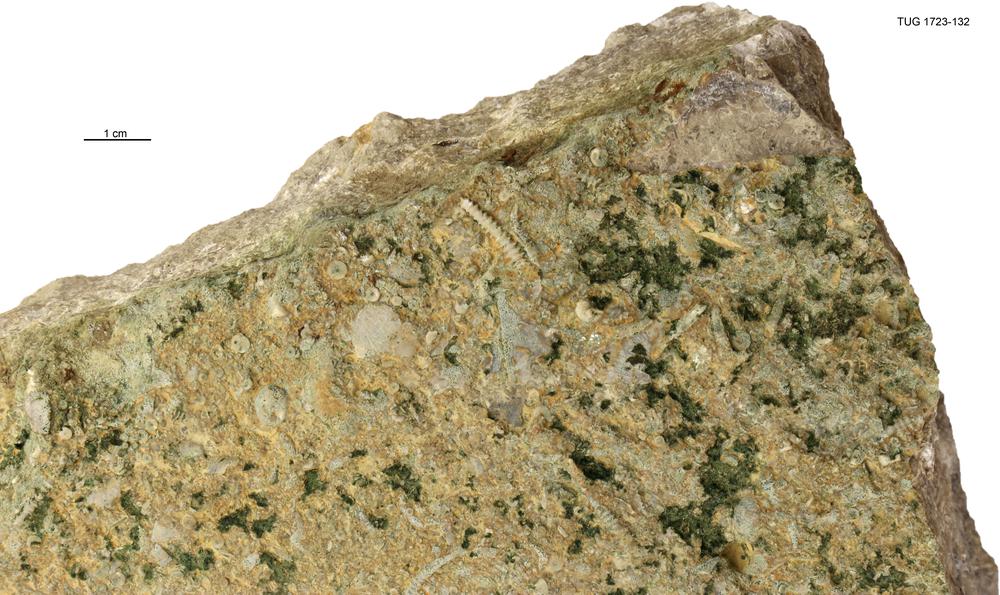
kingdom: Animalia
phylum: Mollusca
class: Cricoconarida
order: Tentaculitida
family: Tentaculitidae
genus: Tentaculites
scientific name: Tentaculites
